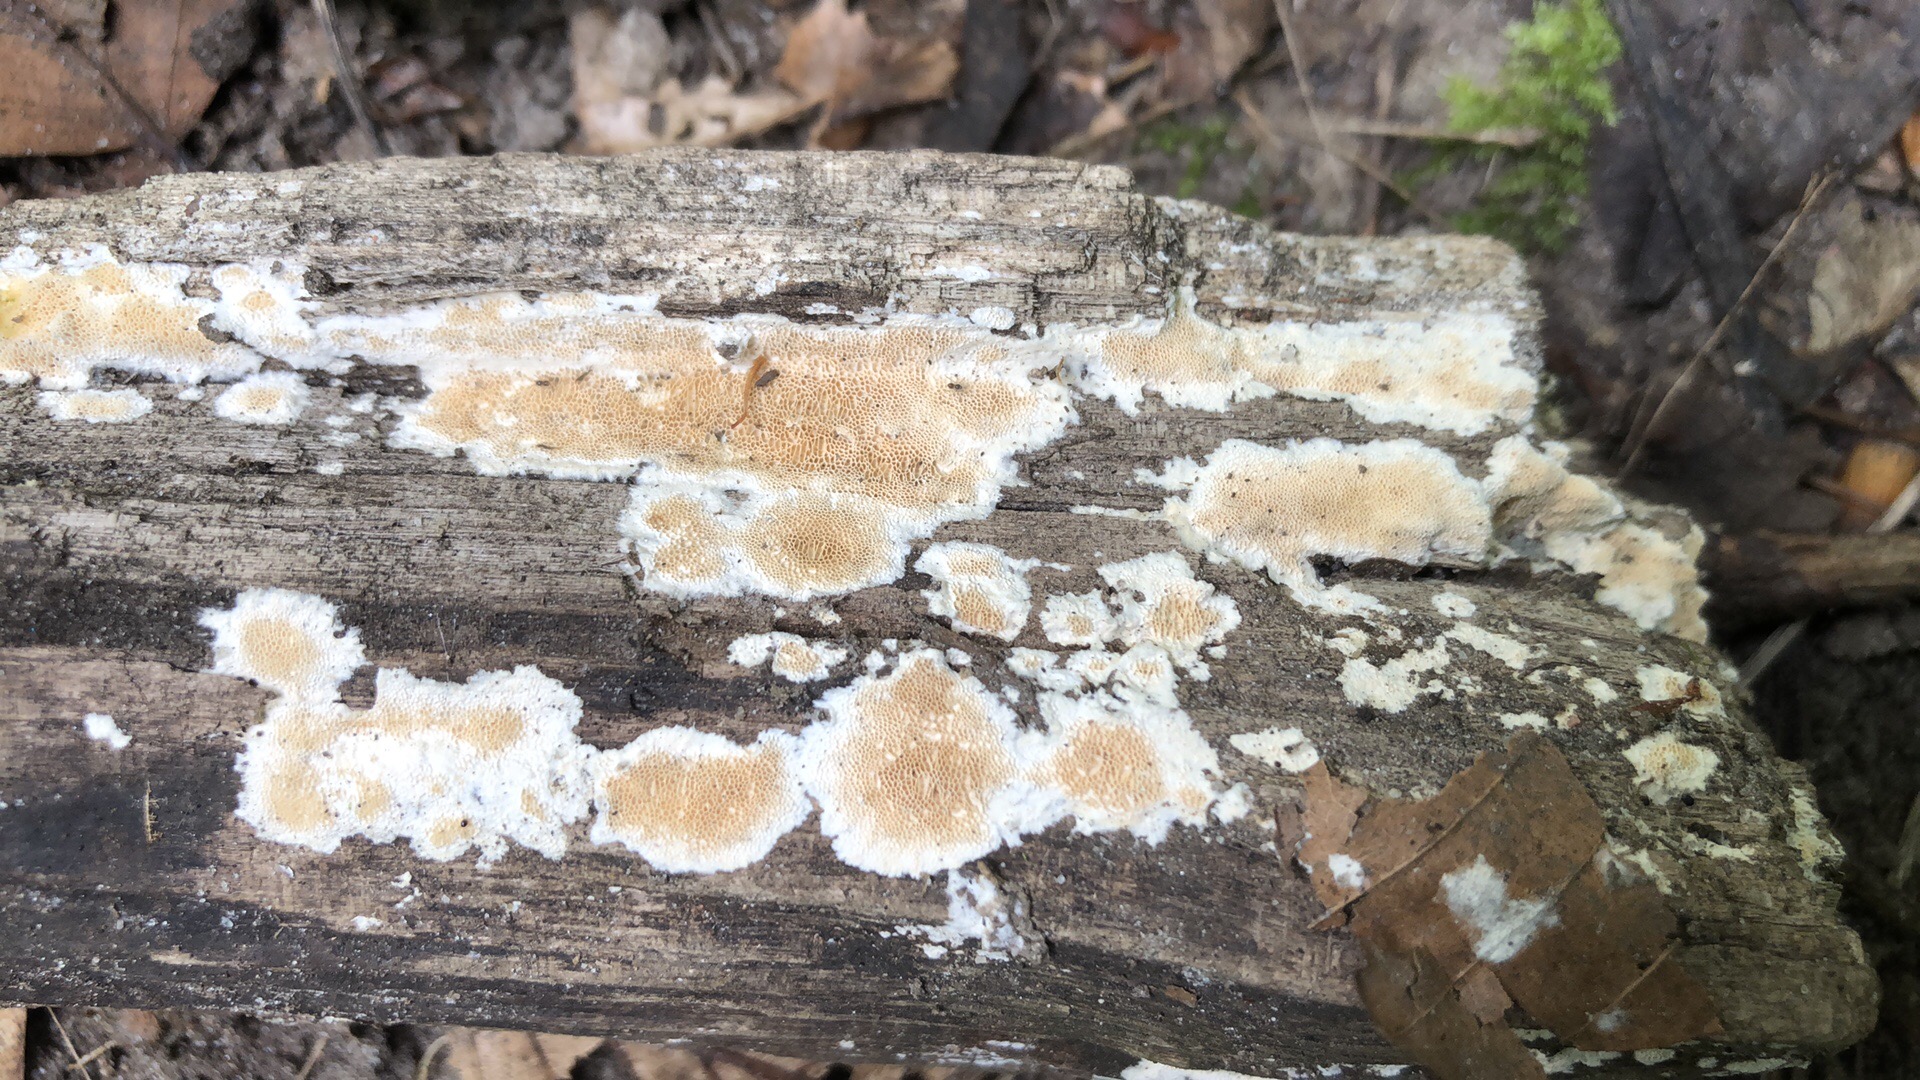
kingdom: Fungi
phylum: Basidiomycota
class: Agaricomycetes
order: Polyporales
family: Steccherinaceae
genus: Junghuhnia
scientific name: Junghuhnia nitida
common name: almindelig skønporesvamp
